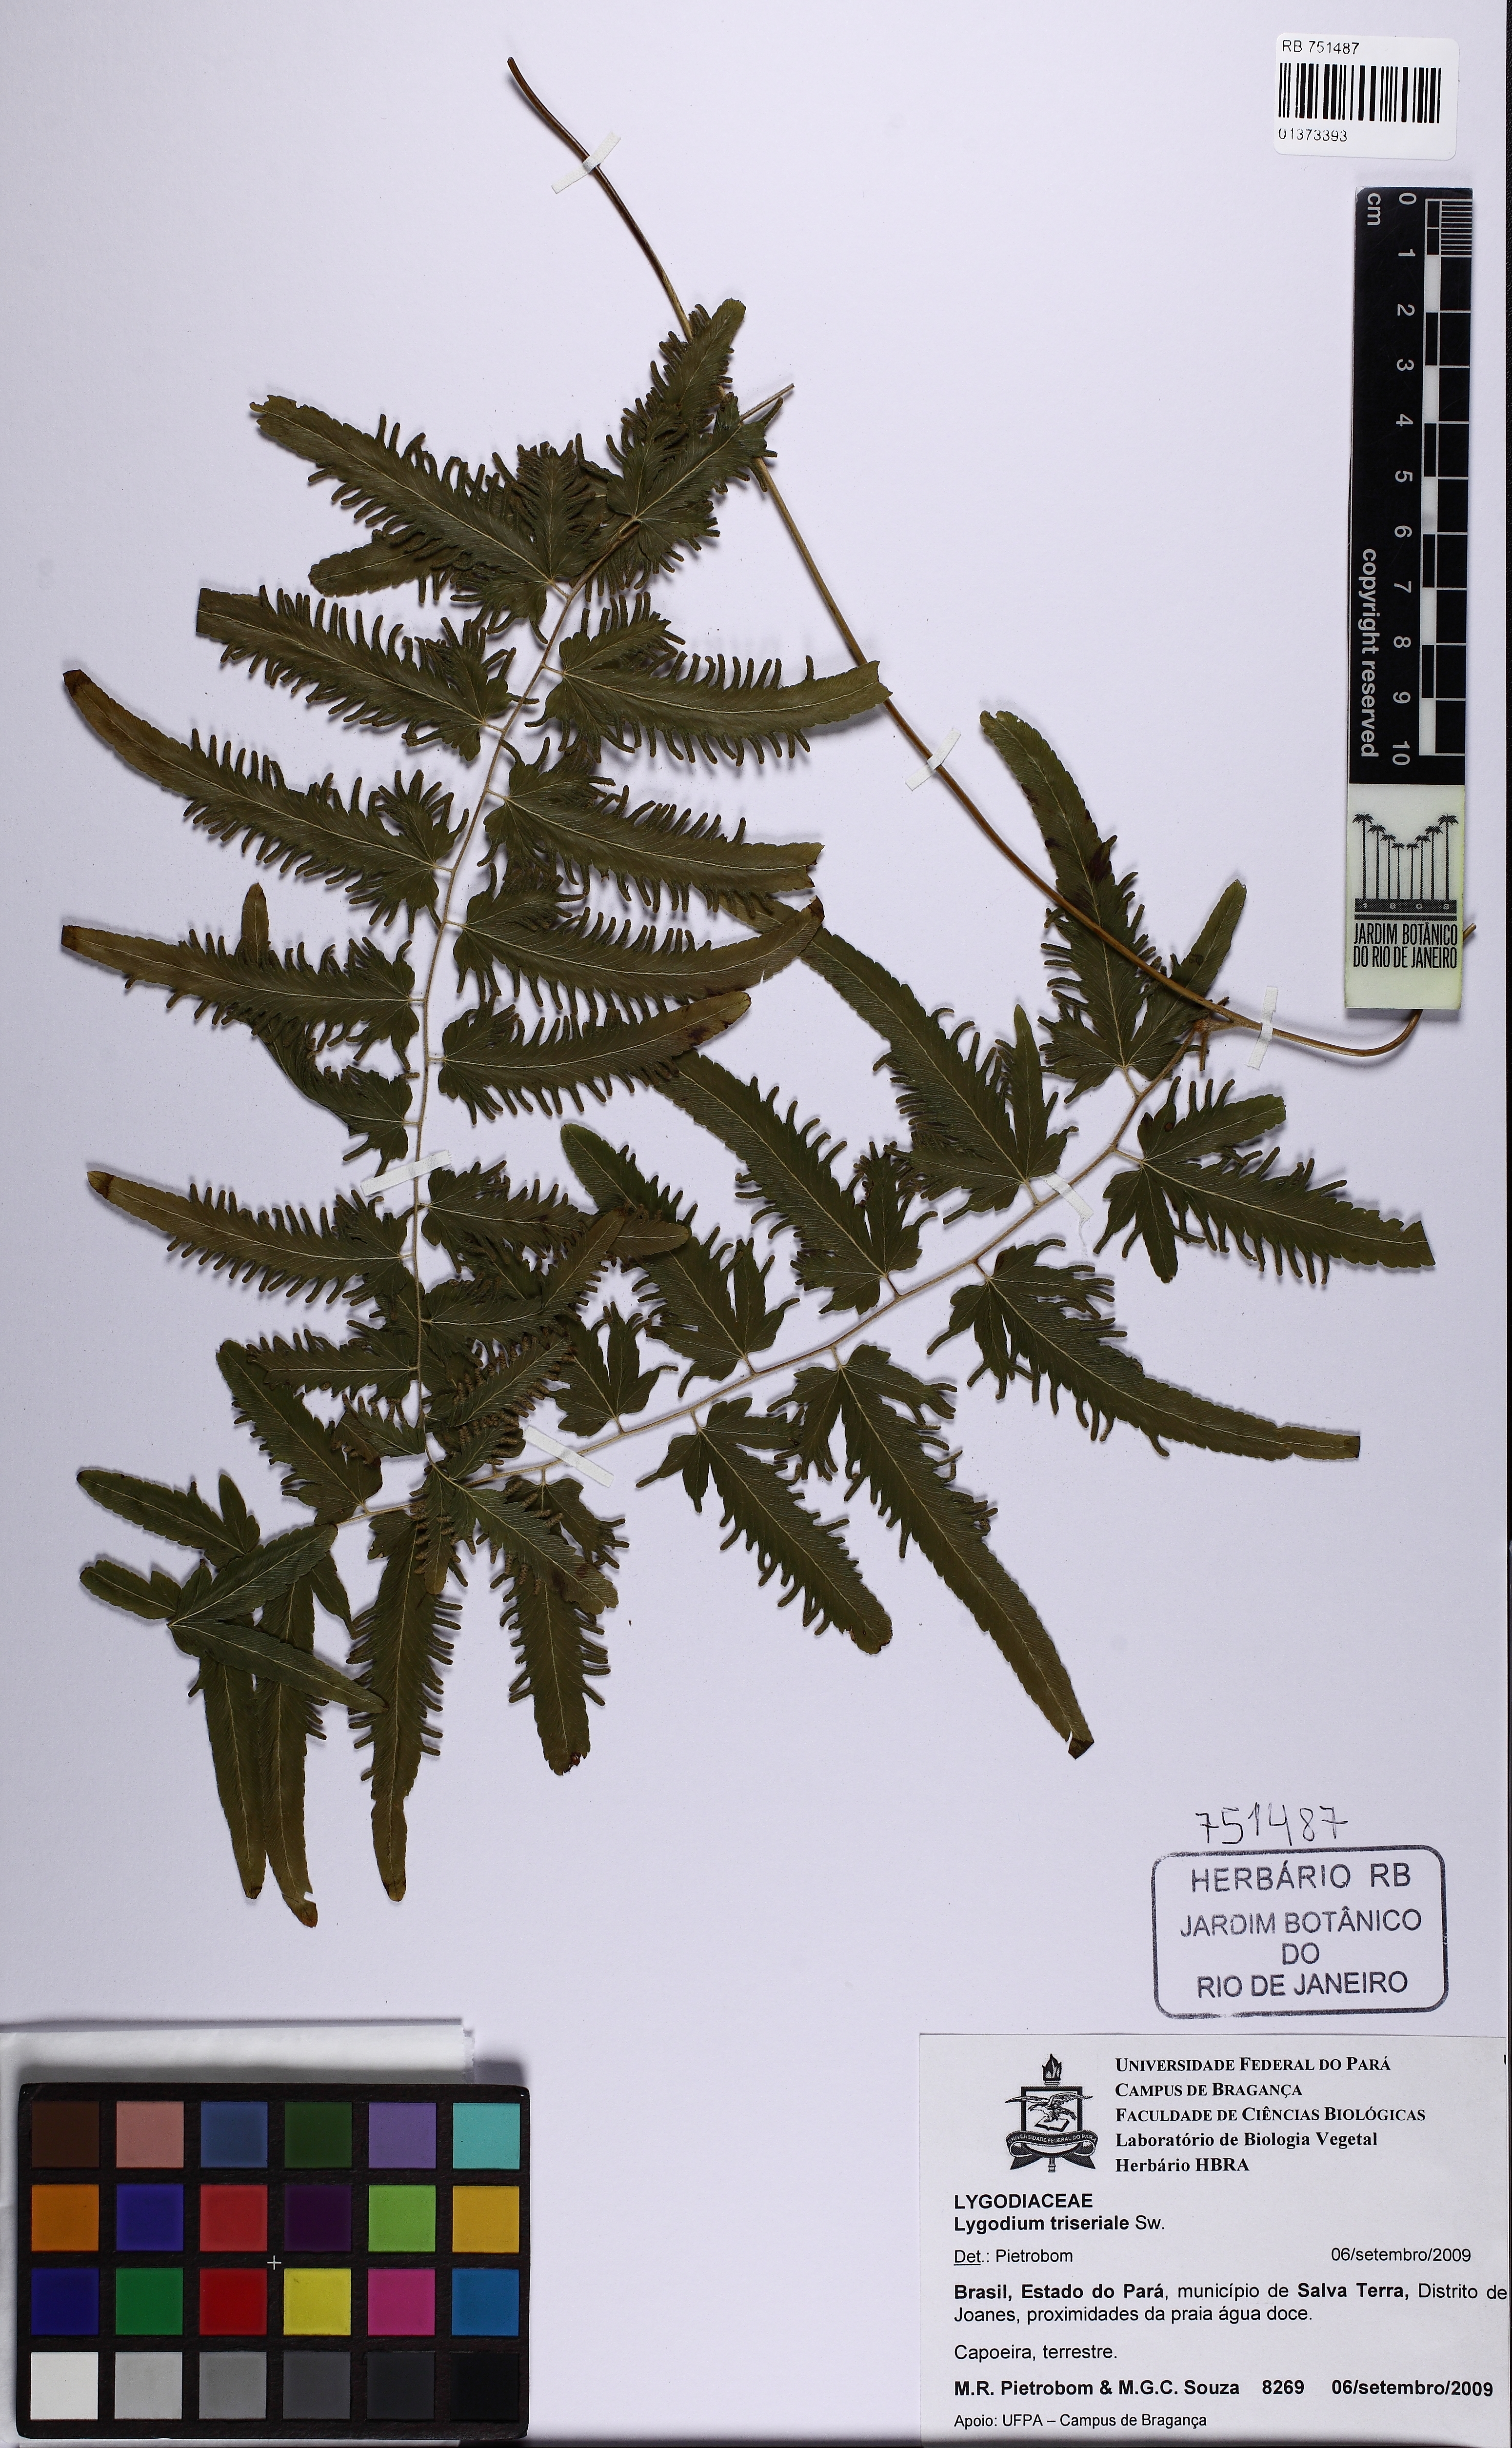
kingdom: Plantae
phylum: Tracheophyta
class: Polypodiopsida
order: Schizaeales
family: Lygodiaceae
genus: Lygodium
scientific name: Lygodium
